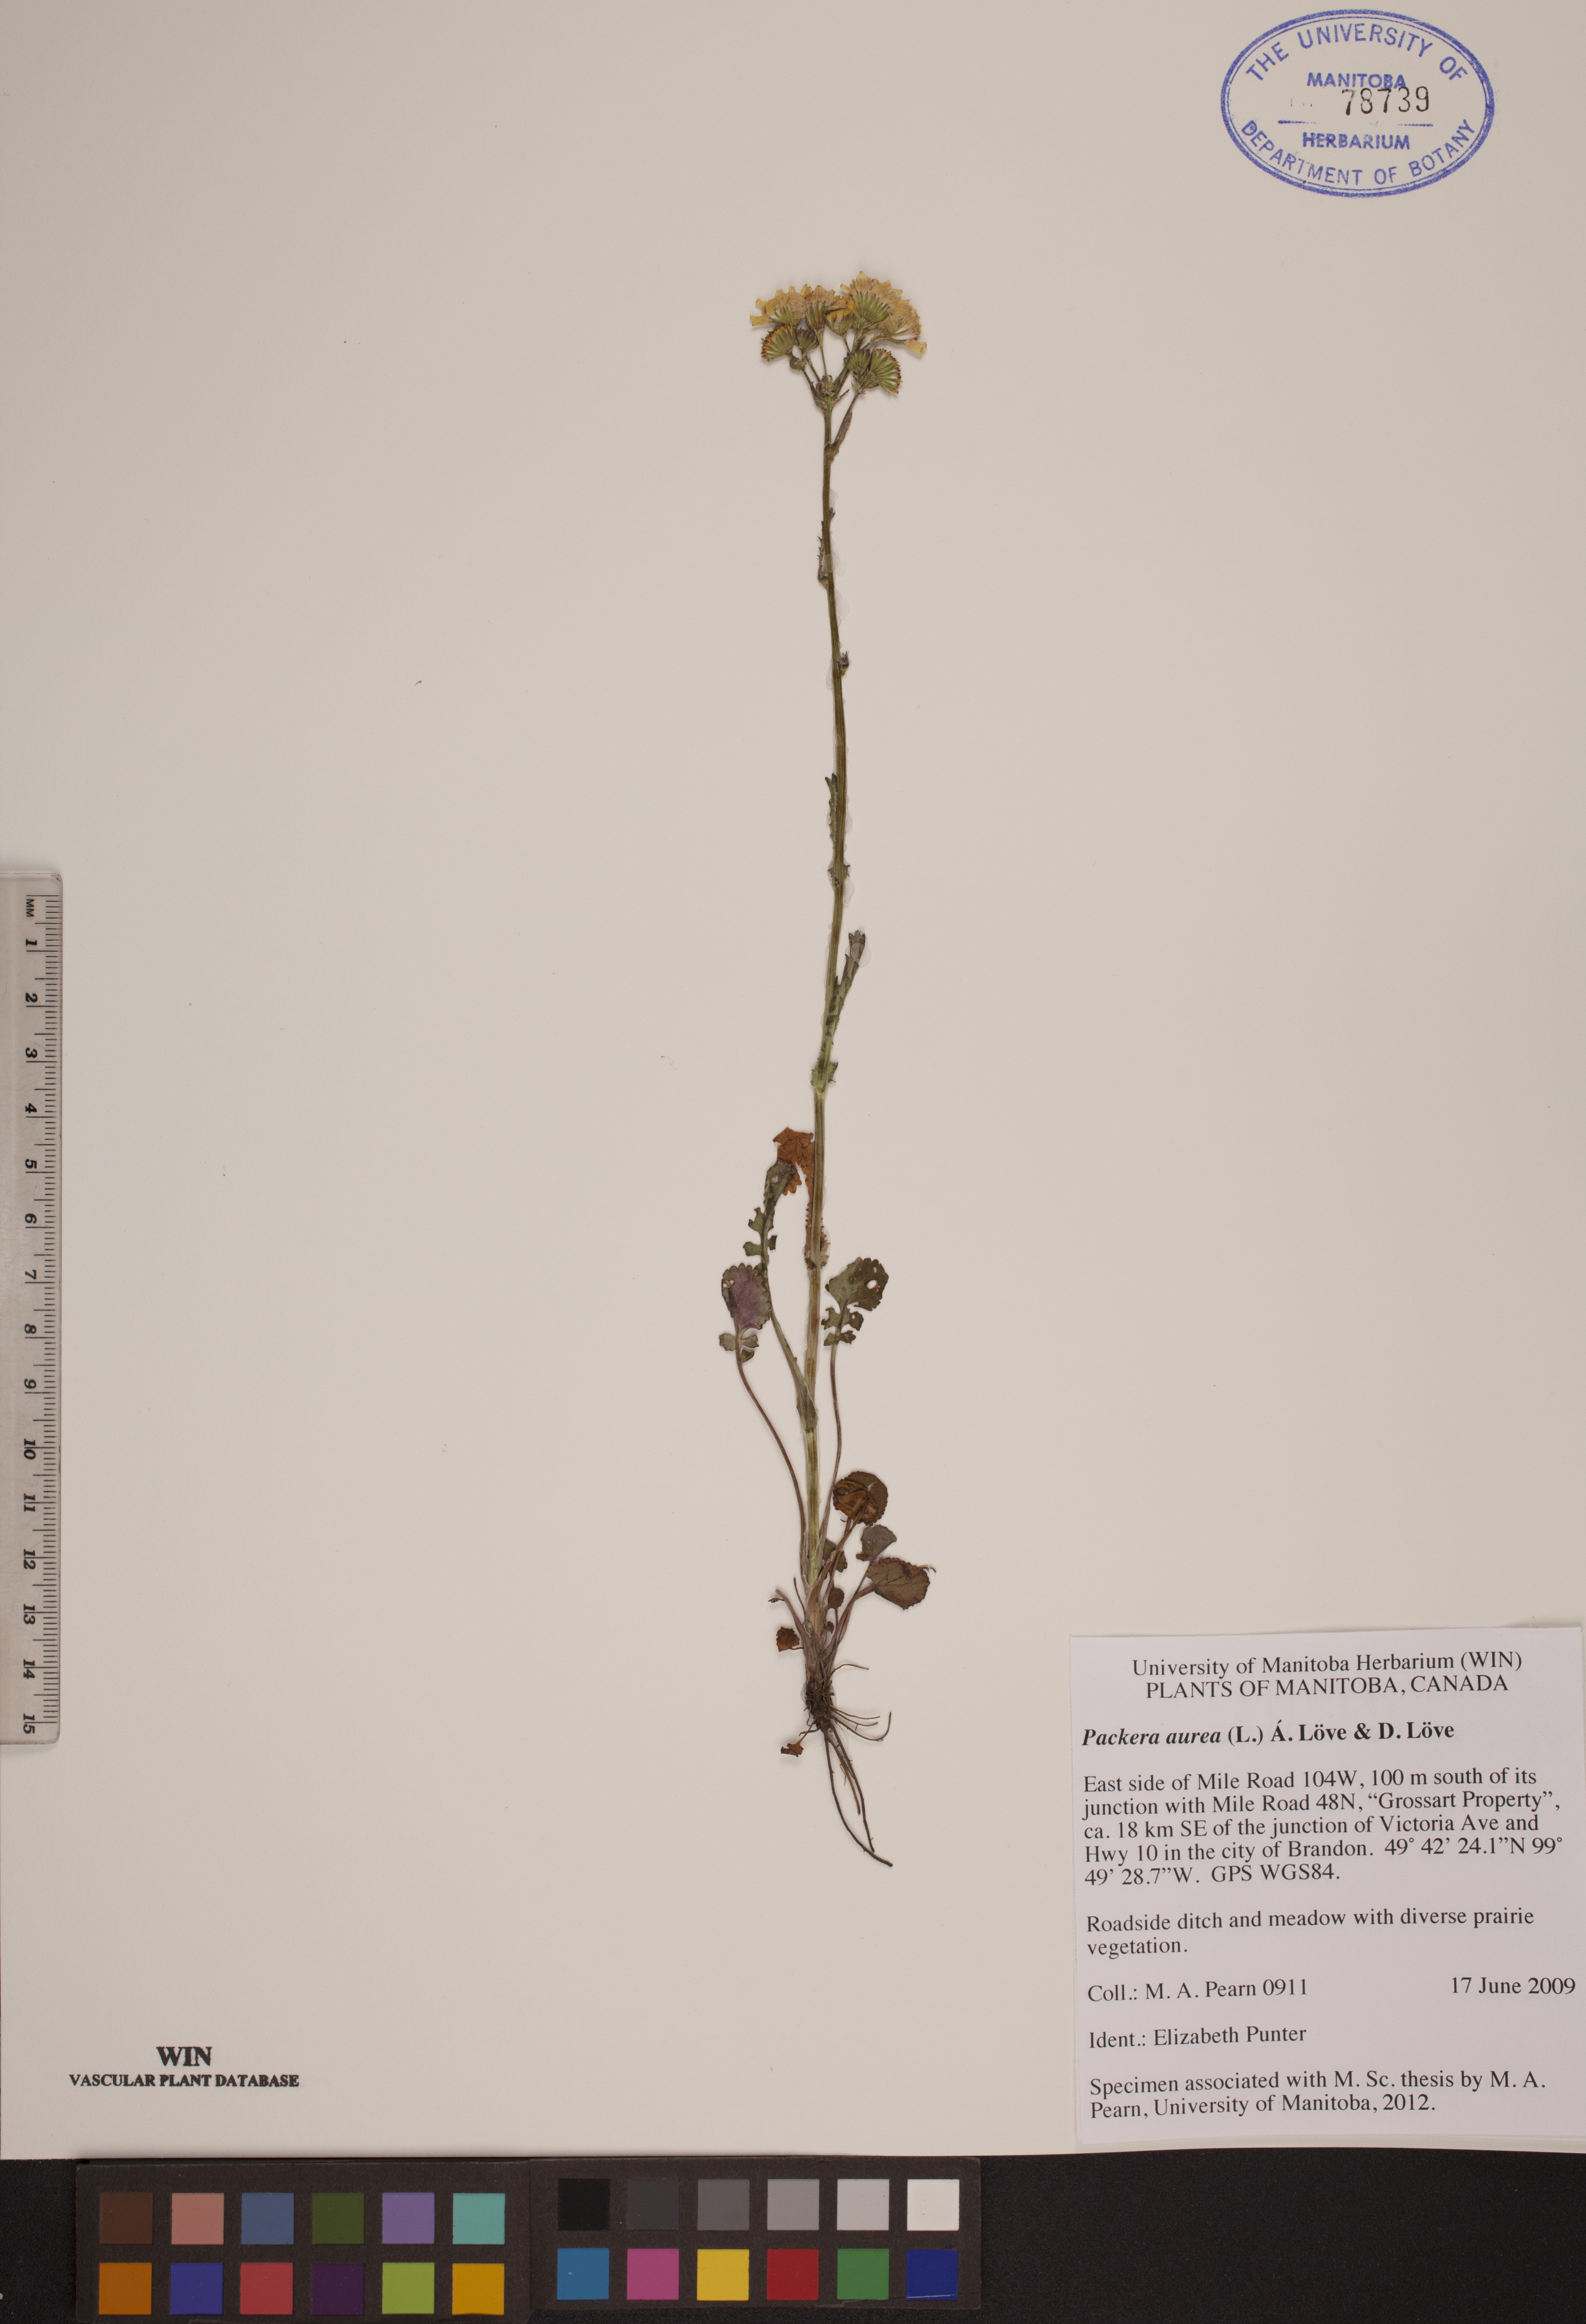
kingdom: Plantae
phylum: Tracheophyta
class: Magnoliopsida
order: Asterales
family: Asteraceae
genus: Packera
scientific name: Packera aurea
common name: Golden groundsel
